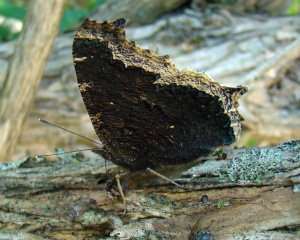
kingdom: Animalia
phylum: Arthropoda
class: Insecta
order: Lepidoptera
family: Nymphalidae
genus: Nymphalis
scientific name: Nymphalis antiopa
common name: Mourning Cloak
